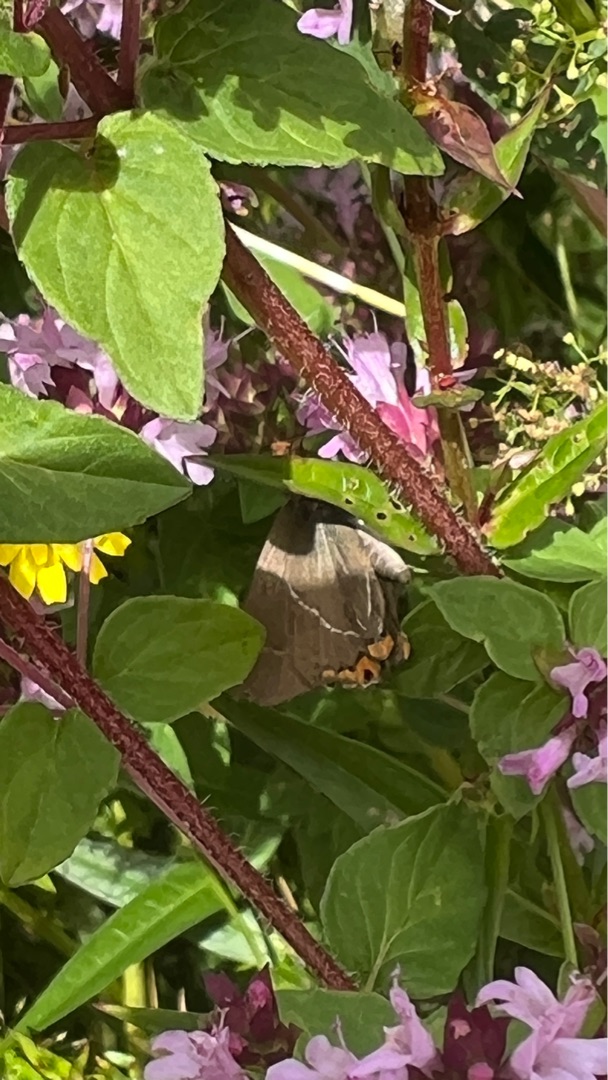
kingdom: Animalia
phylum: Arthropoda
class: Insecta
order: Lepidoptera
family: Lycaenidae
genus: Satyrium
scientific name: Satyrium w-album
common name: Det hvide W
